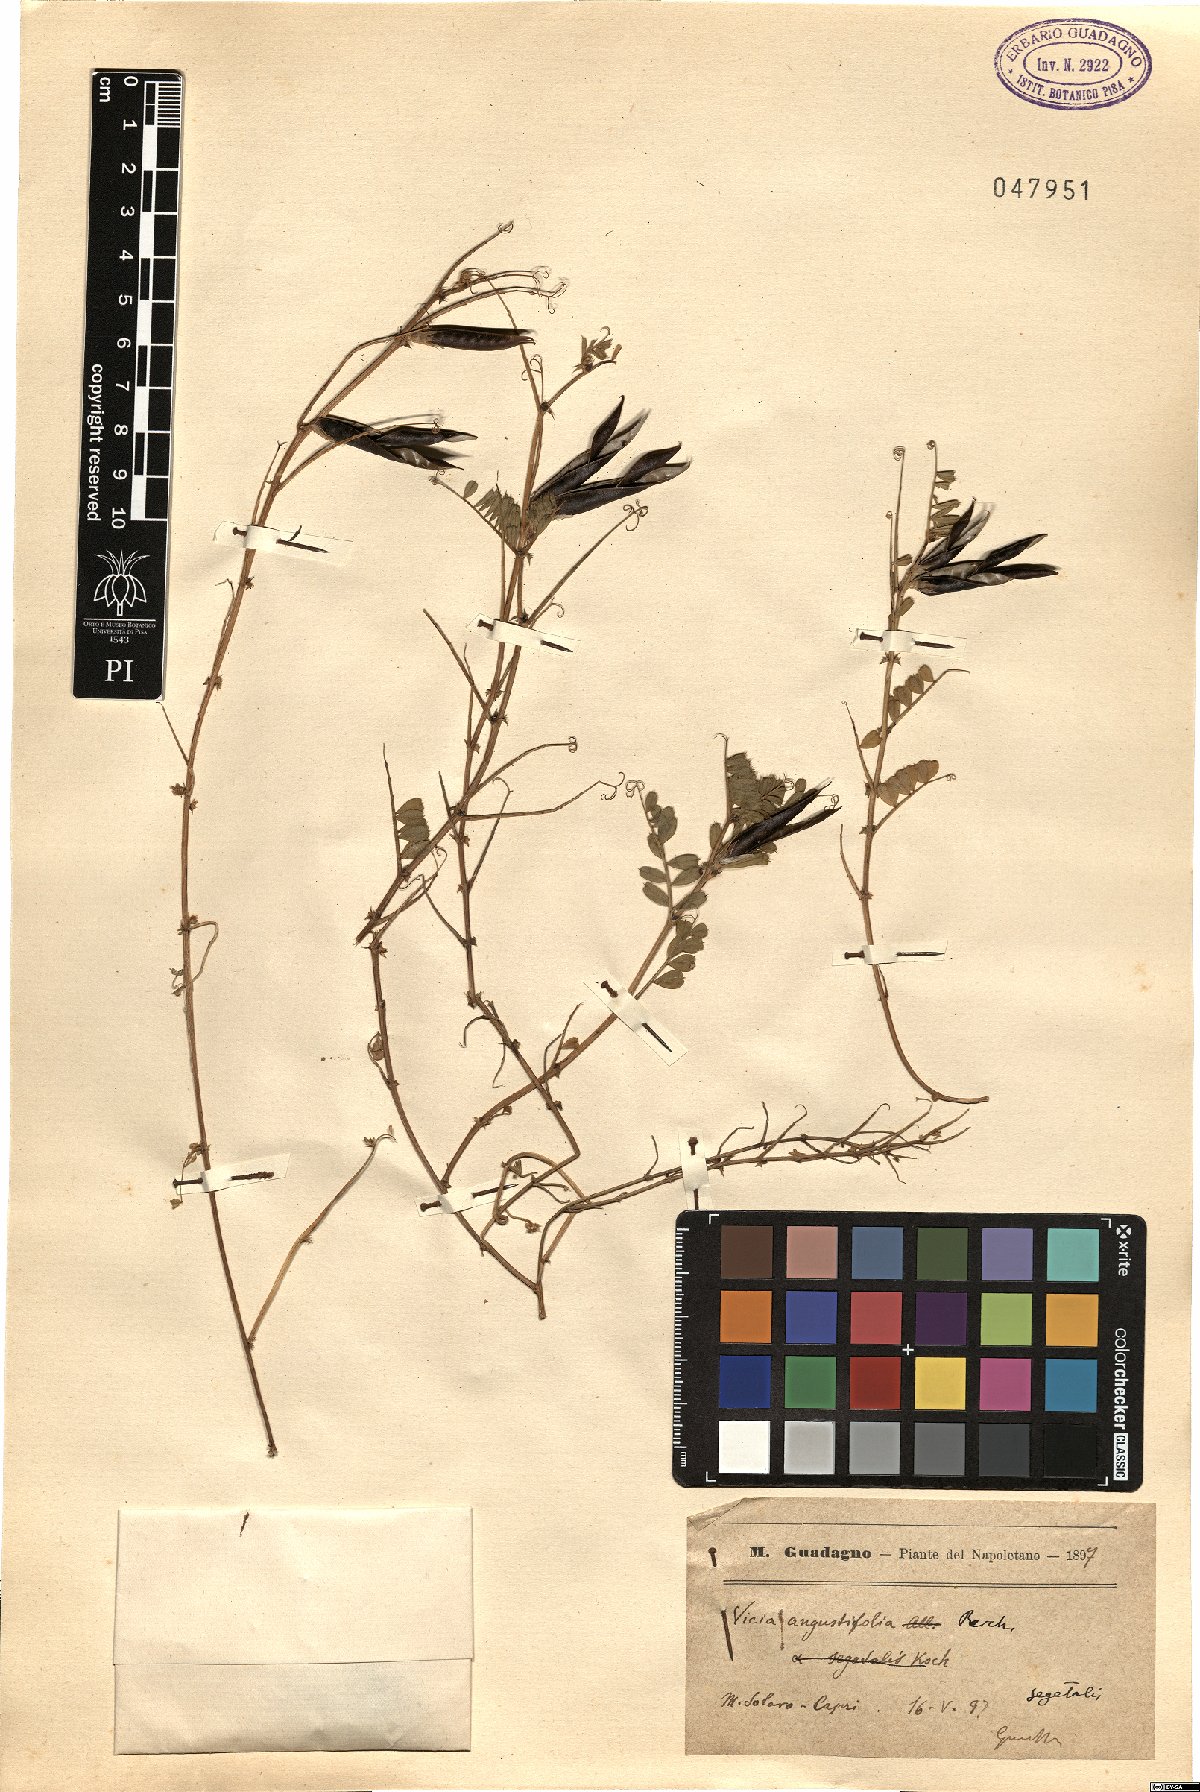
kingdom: Plantae
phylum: Tracheophyta
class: Magnoliopsida
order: Fabales
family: Fabaceae
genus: Vicia
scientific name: Vicia sativa
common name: Garden vetch
